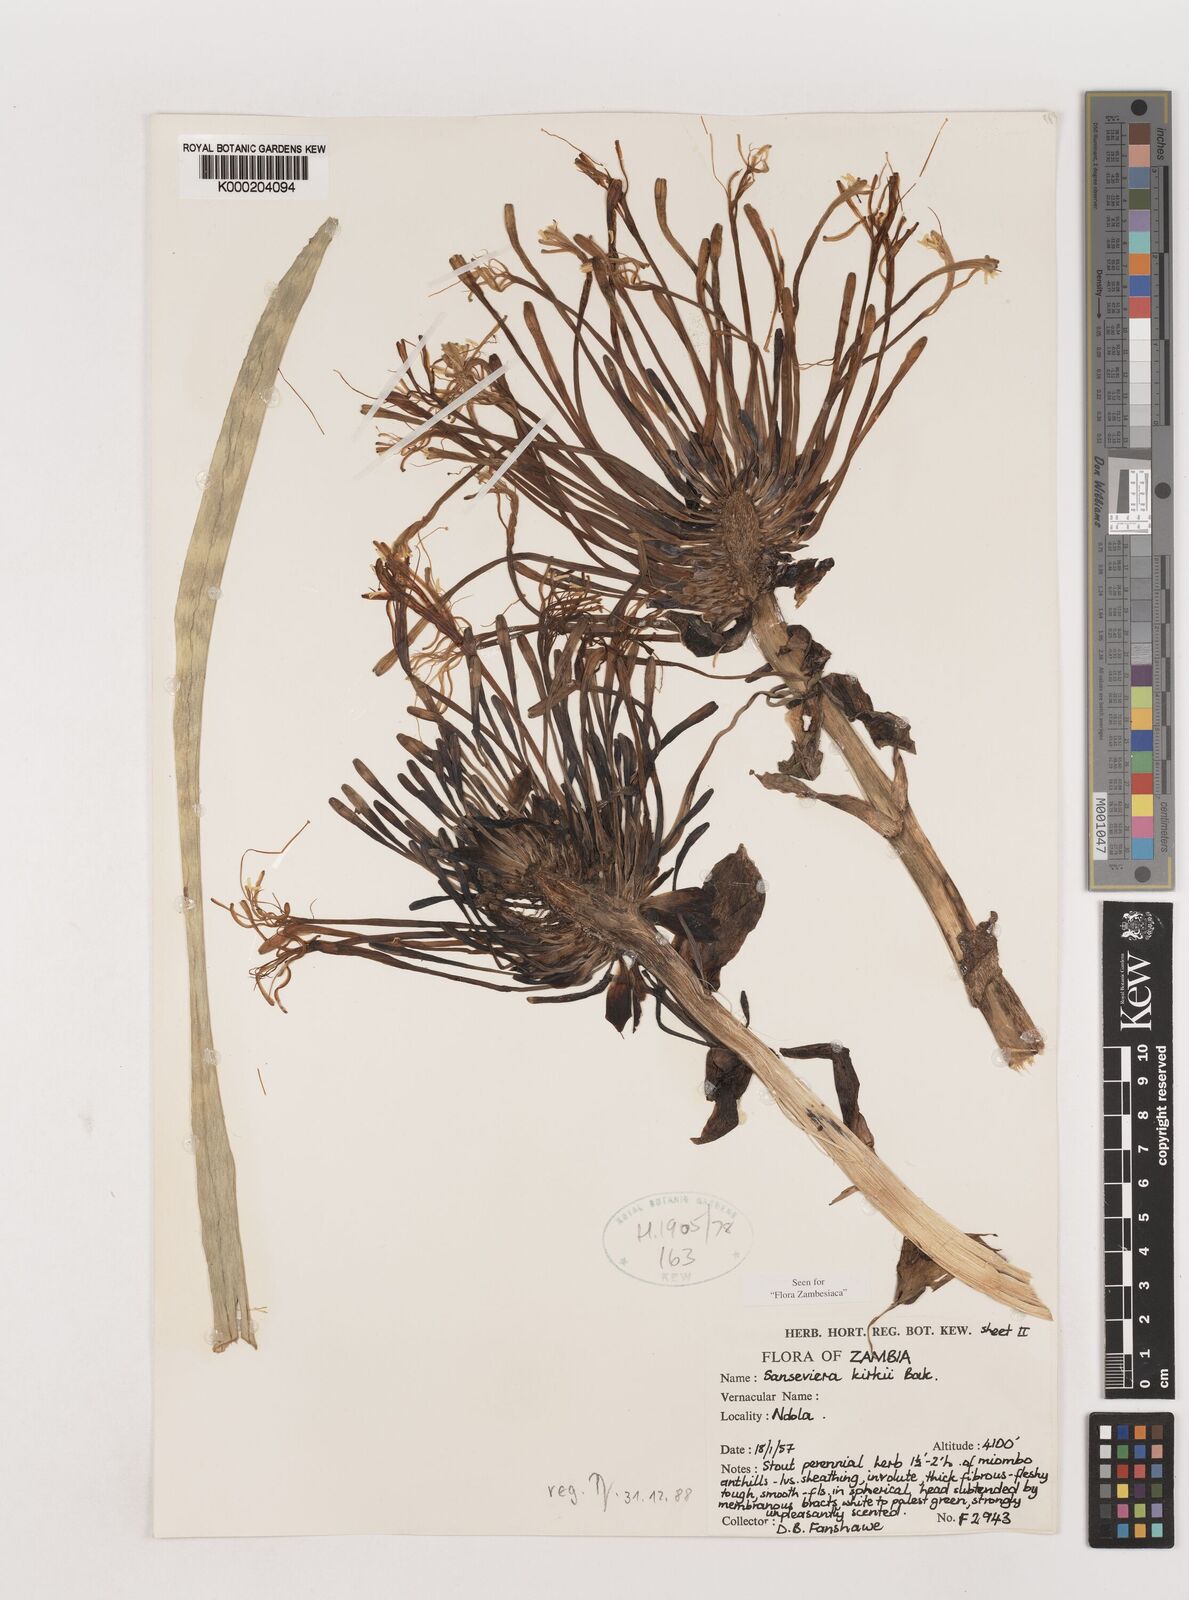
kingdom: Plantae
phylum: Tracheophyta
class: Liliopsida
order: Asparagales
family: Asparagaceae
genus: Dracaena
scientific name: Dracaena pethera
